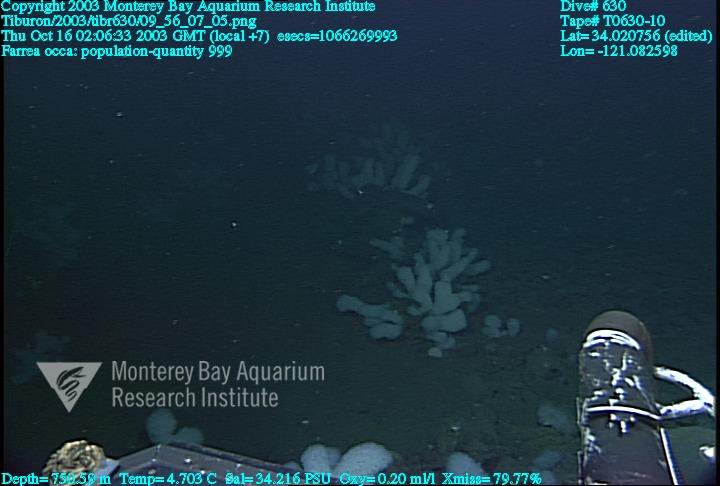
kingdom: Animalia
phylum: Porifera
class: Hexactinellida
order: Sceptrulophora
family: Farreidae
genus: Farrea
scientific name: Farrea occa
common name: Reversed glass sponge
